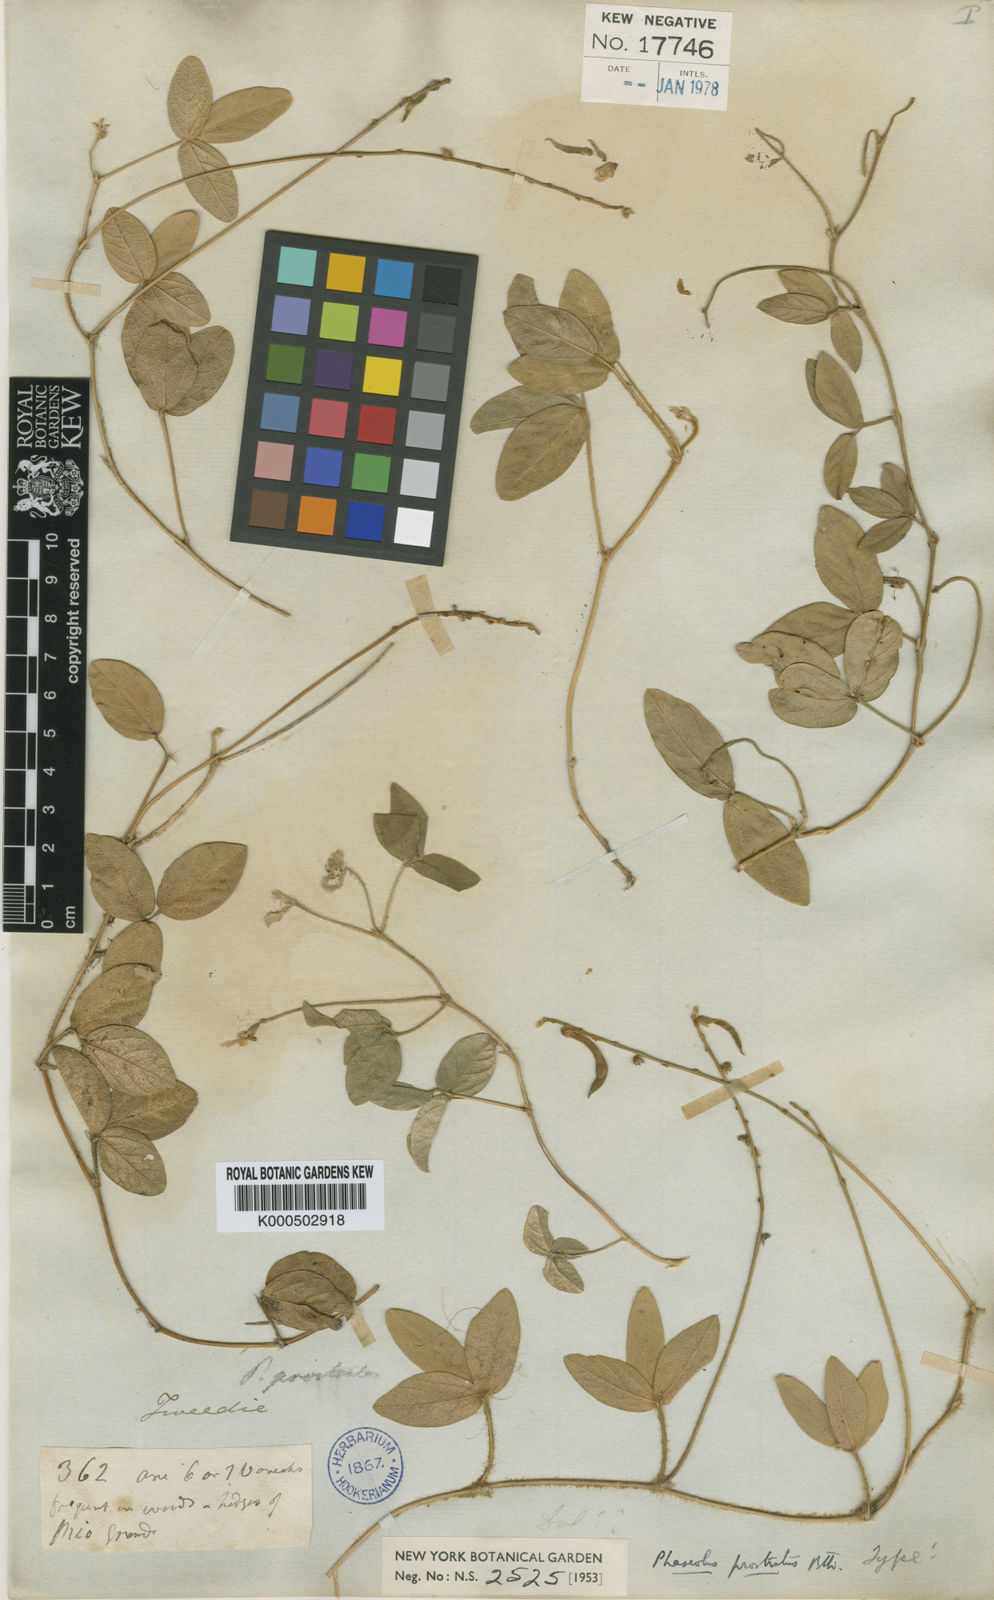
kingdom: Plantae
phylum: Tracheophyta
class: Magnoliopsida
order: Fabales
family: Fabaceae
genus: Macroptilium
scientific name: Macroptilium prostratum
